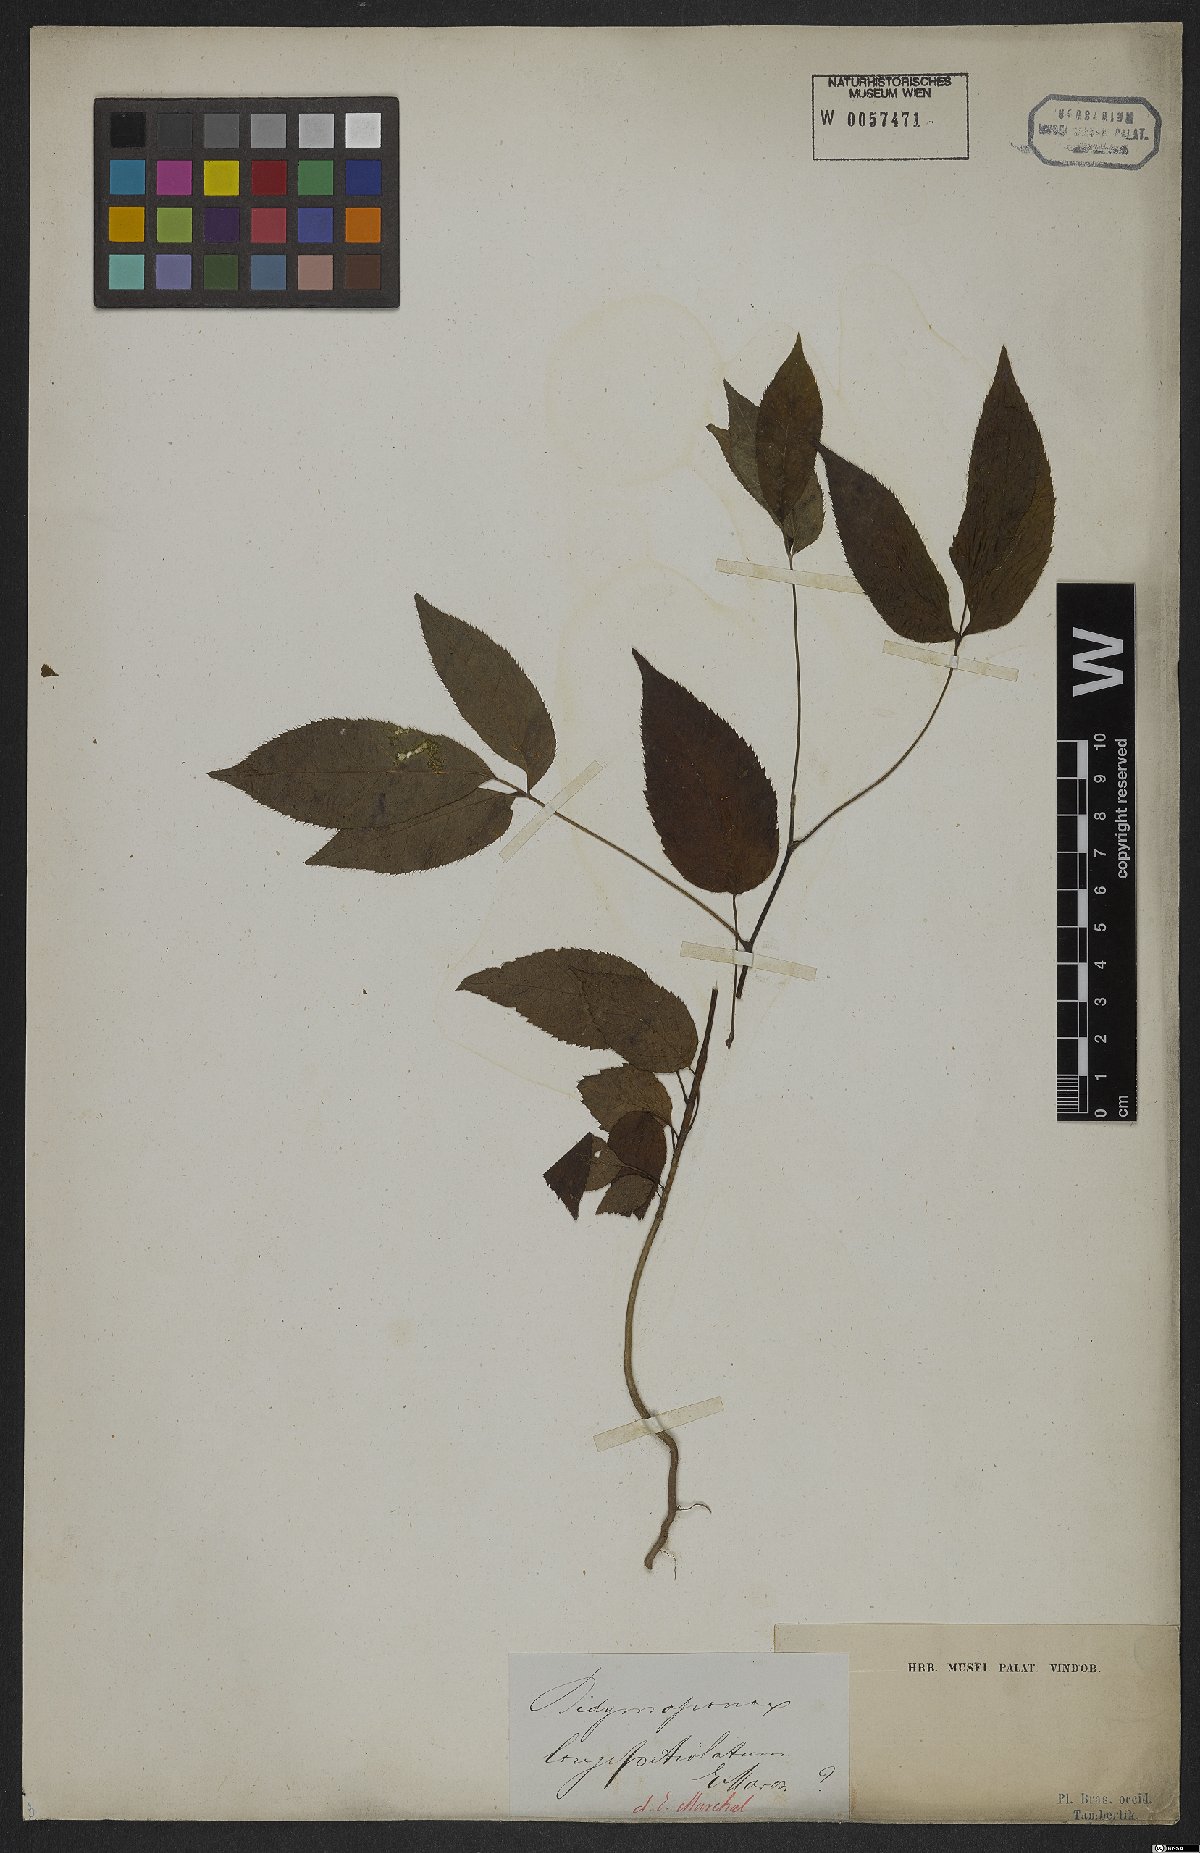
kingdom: Plantae
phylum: Tracheophyta
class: Magnoliopsida
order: Apiales
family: Araliaceae
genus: Didymopanax
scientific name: Didymopanax longepetiolatus
